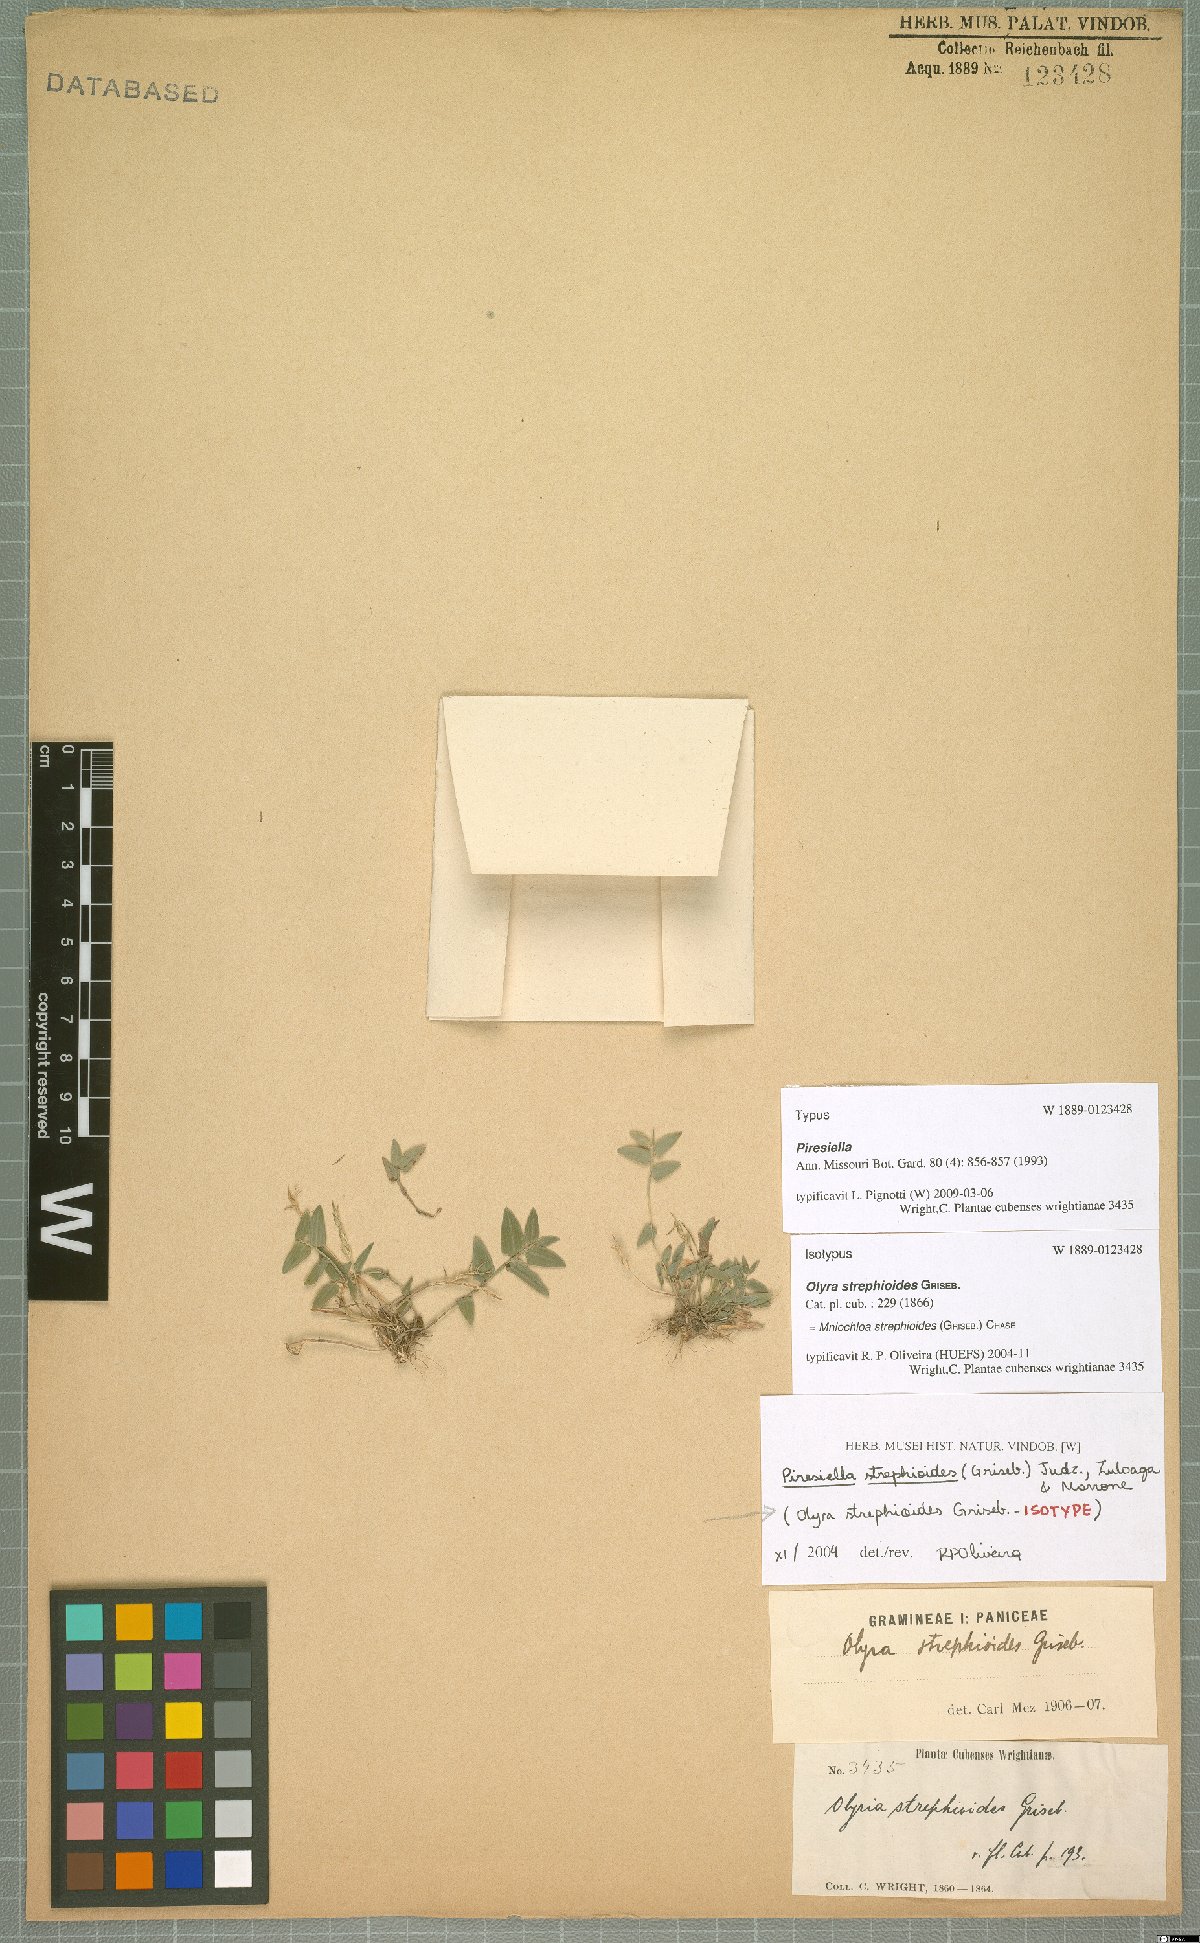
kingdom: Plantae
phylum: Tracheophyta
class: Liliopsida
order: Poales
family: Poaceae
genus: Piresiella
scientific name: Piresiella strephioides
